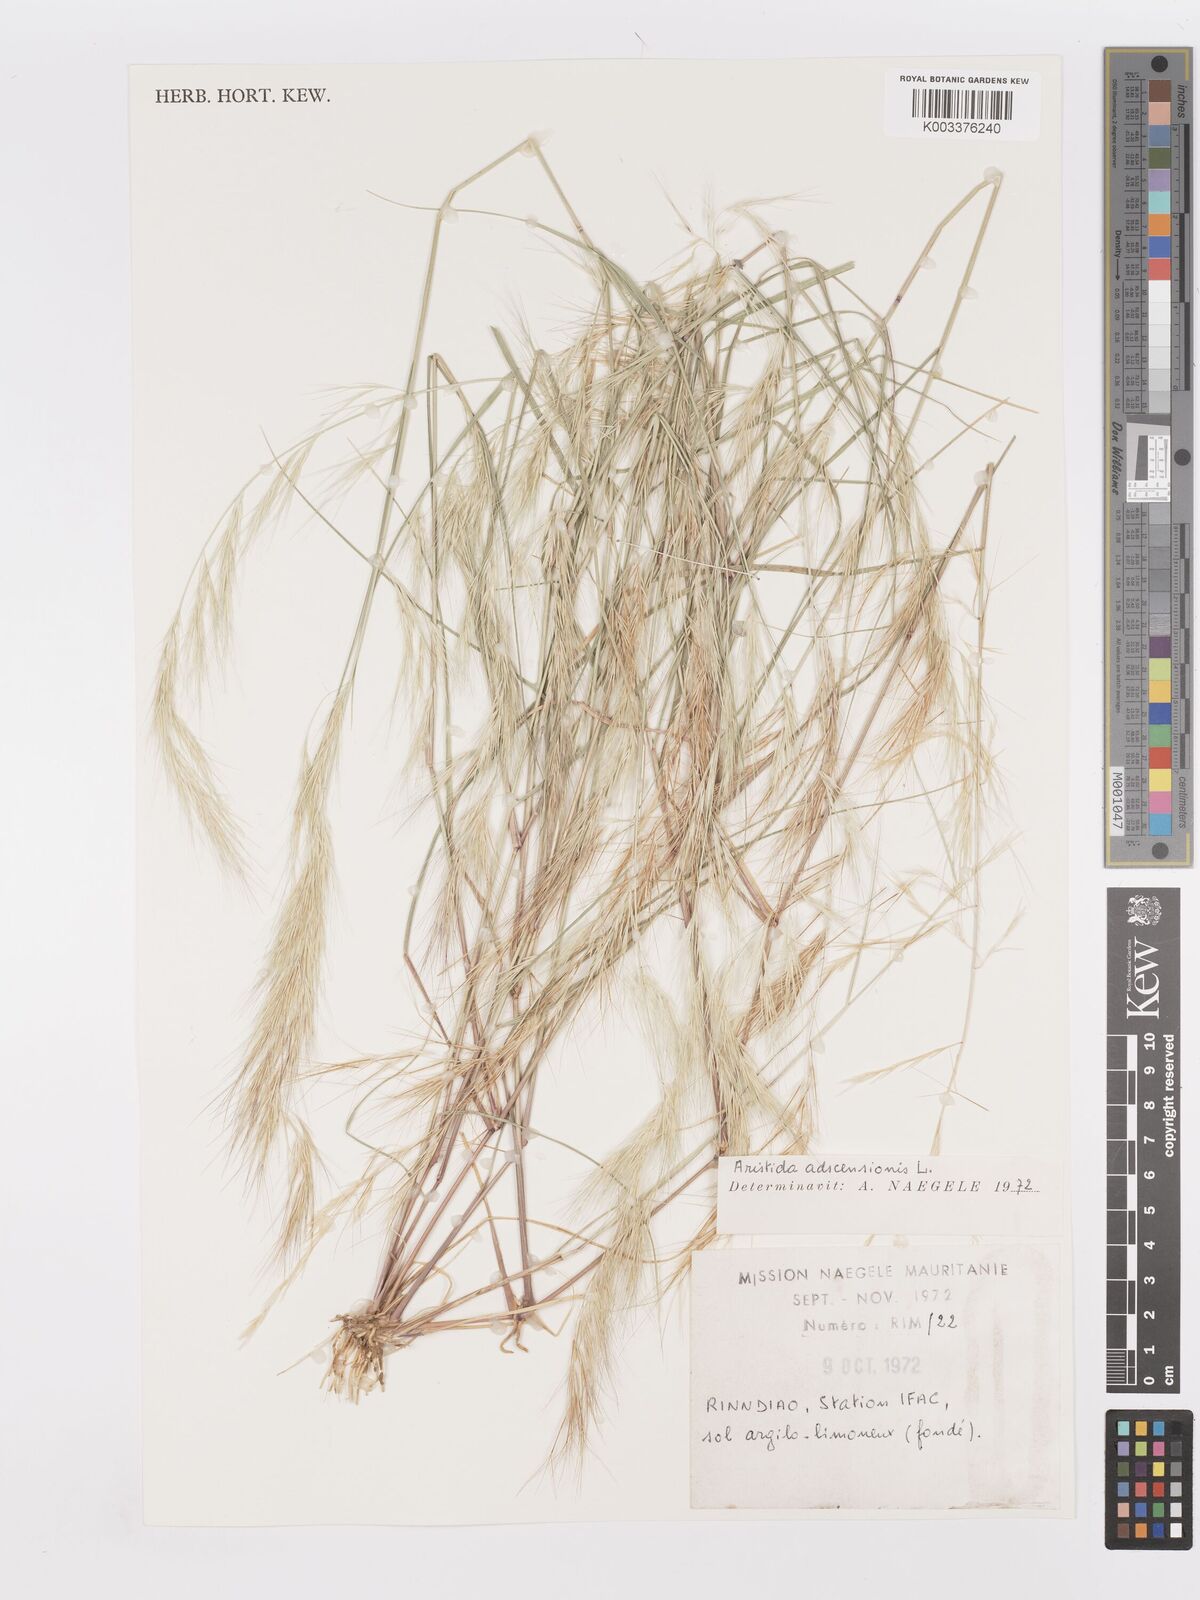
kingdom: Plantae
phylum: Tracheophyta
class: Liliopsida
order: Poales
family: Poaceae
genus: Aristida
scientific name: Aristida adscensionis
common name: Sixweeks threeawn
